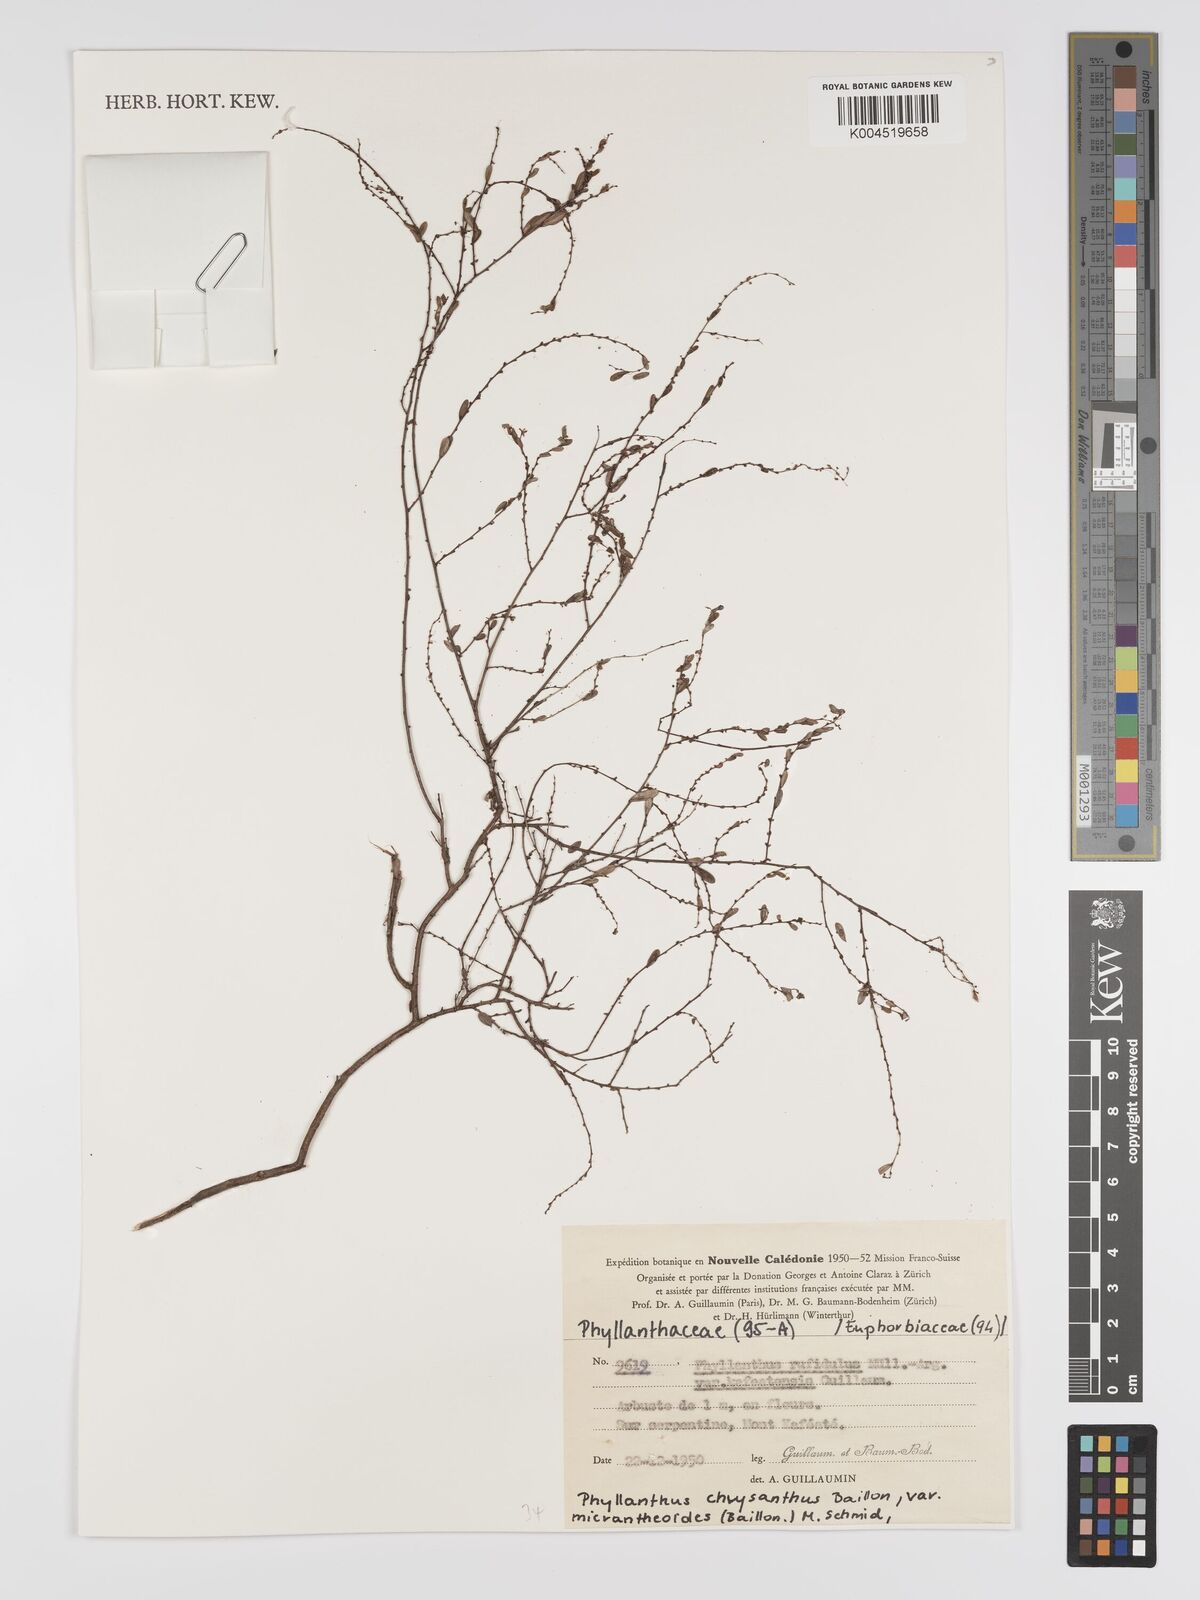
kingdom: Plantae
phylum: Tracheophyta
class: Magnoliopsida
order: Malpighiales
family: Phyllanthaceae
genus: Phyllanthus
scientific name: Phyllanthus chrysanthus
